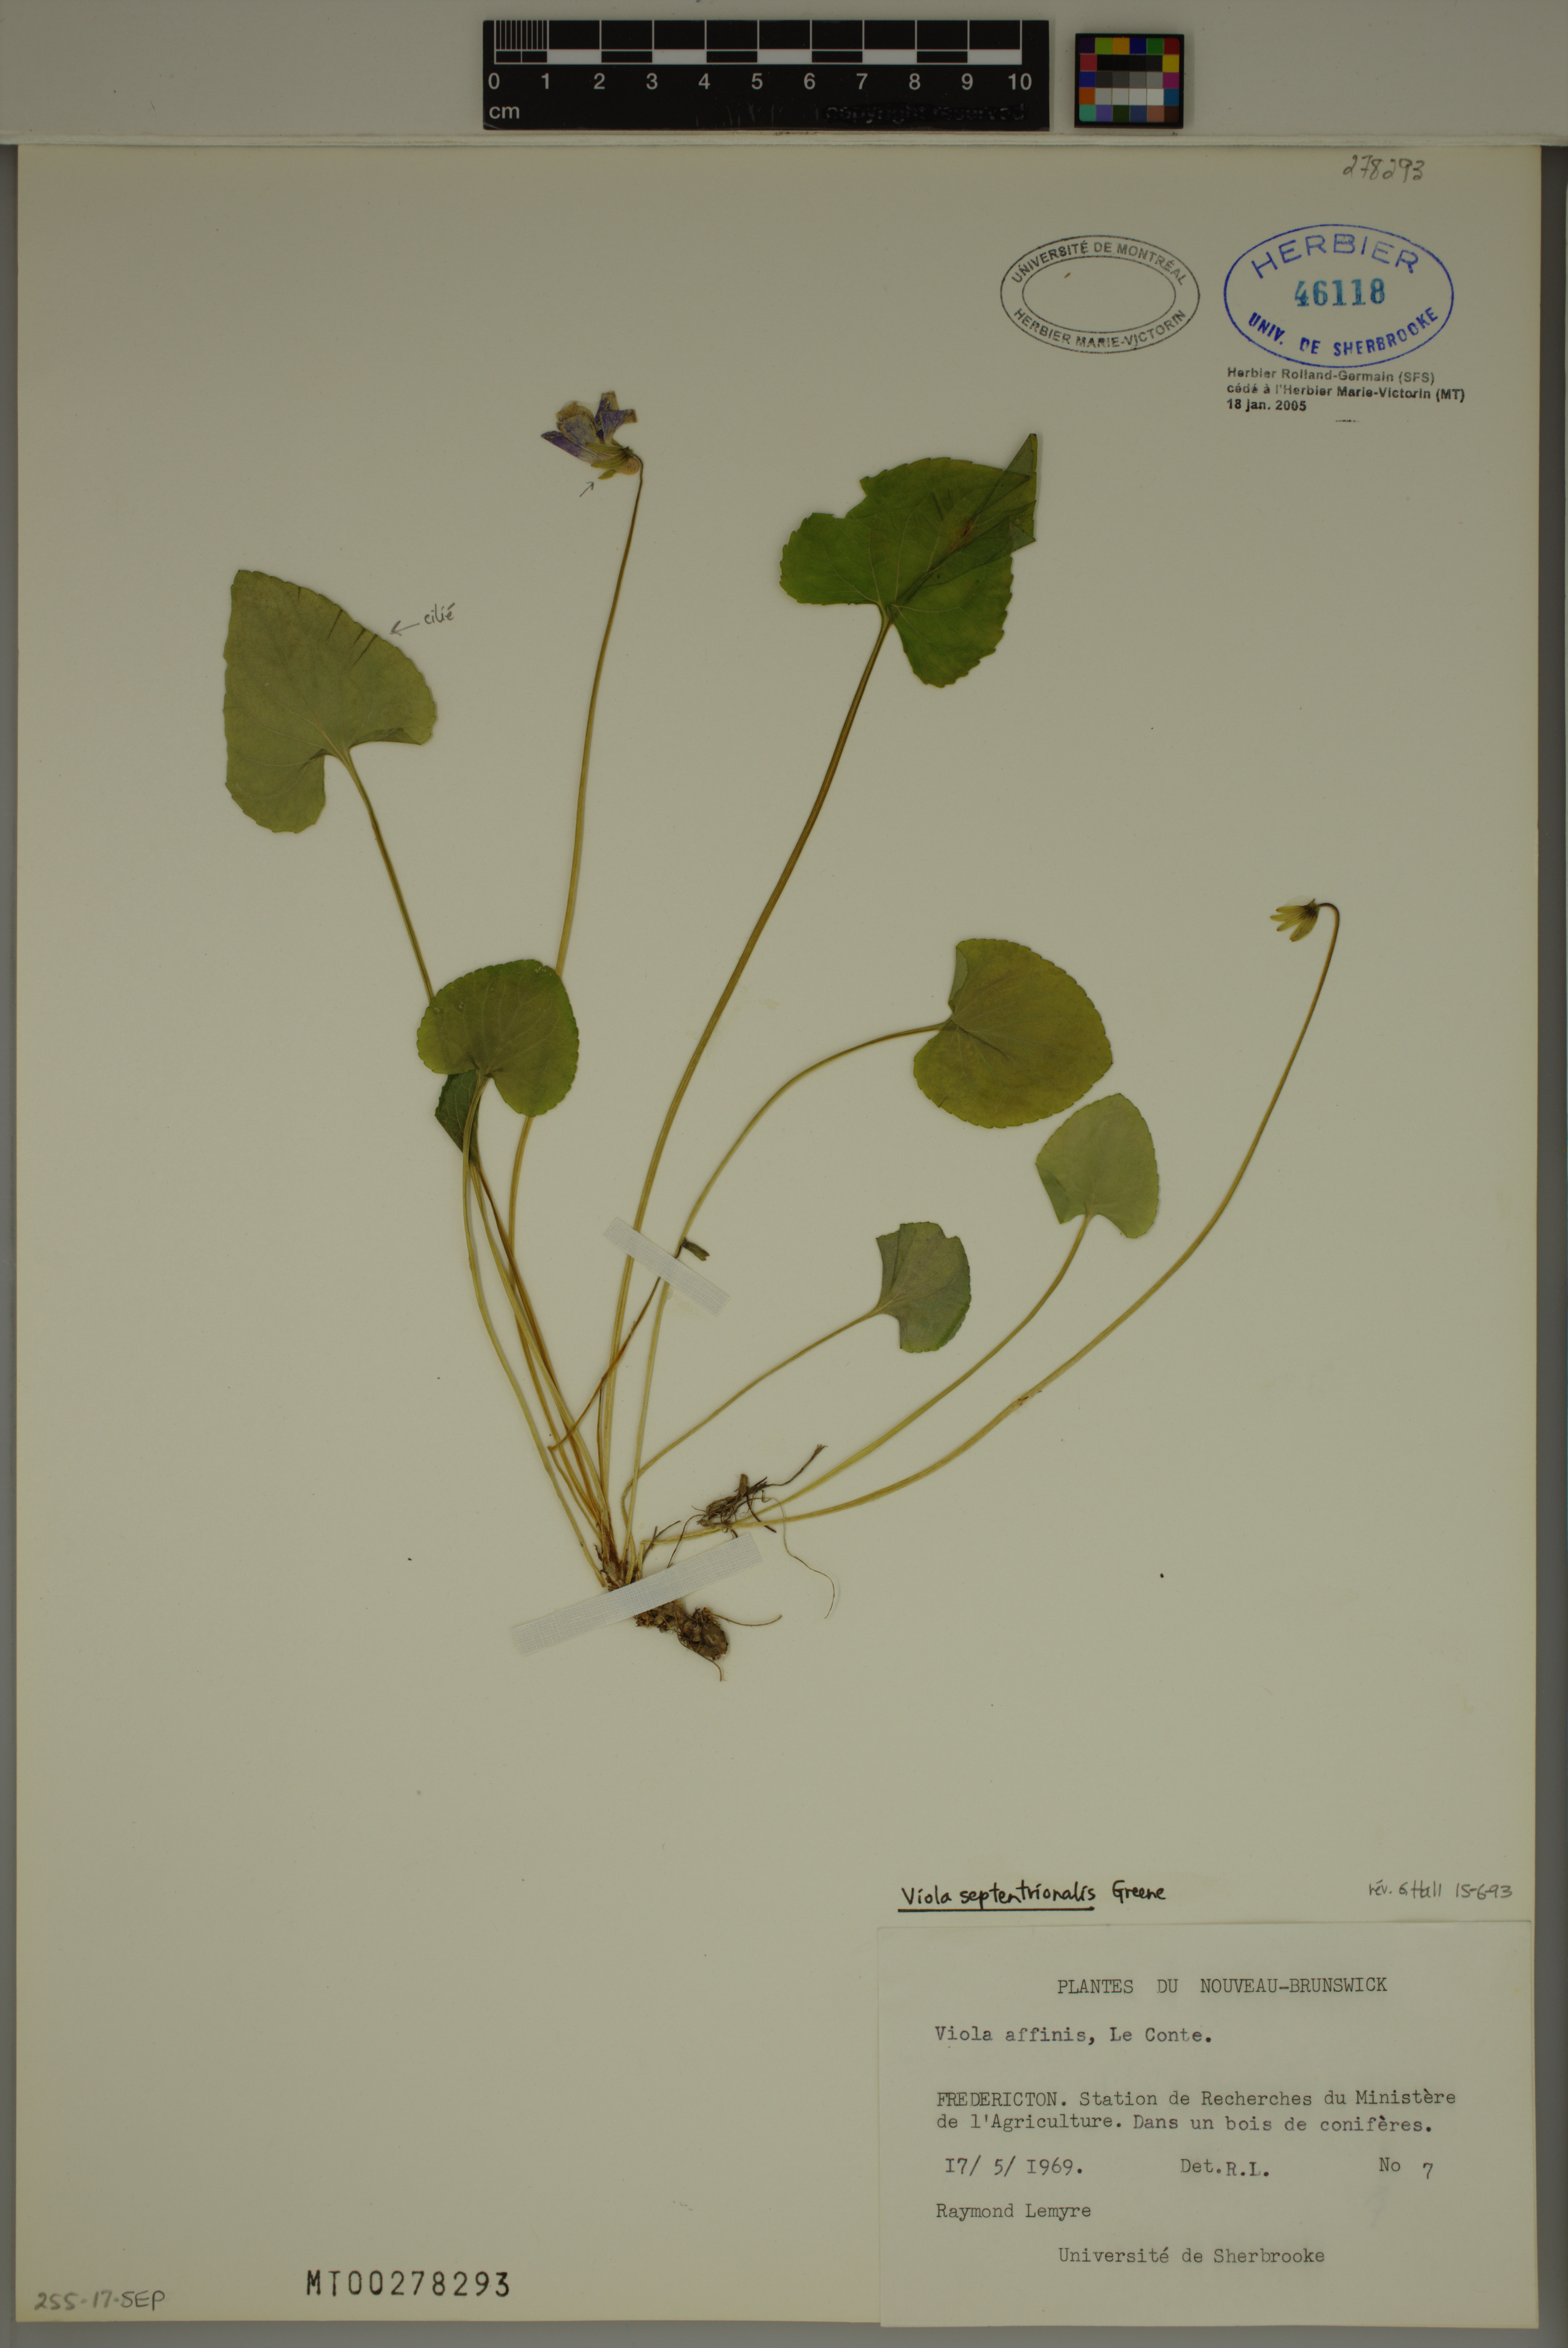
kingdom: Plantae
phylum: Tracheophyta
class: Magnoliopsida
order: Malpighiales
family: Violaceae
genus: Viola
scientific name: Viola septentrionalis
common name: Northern woodland violet
